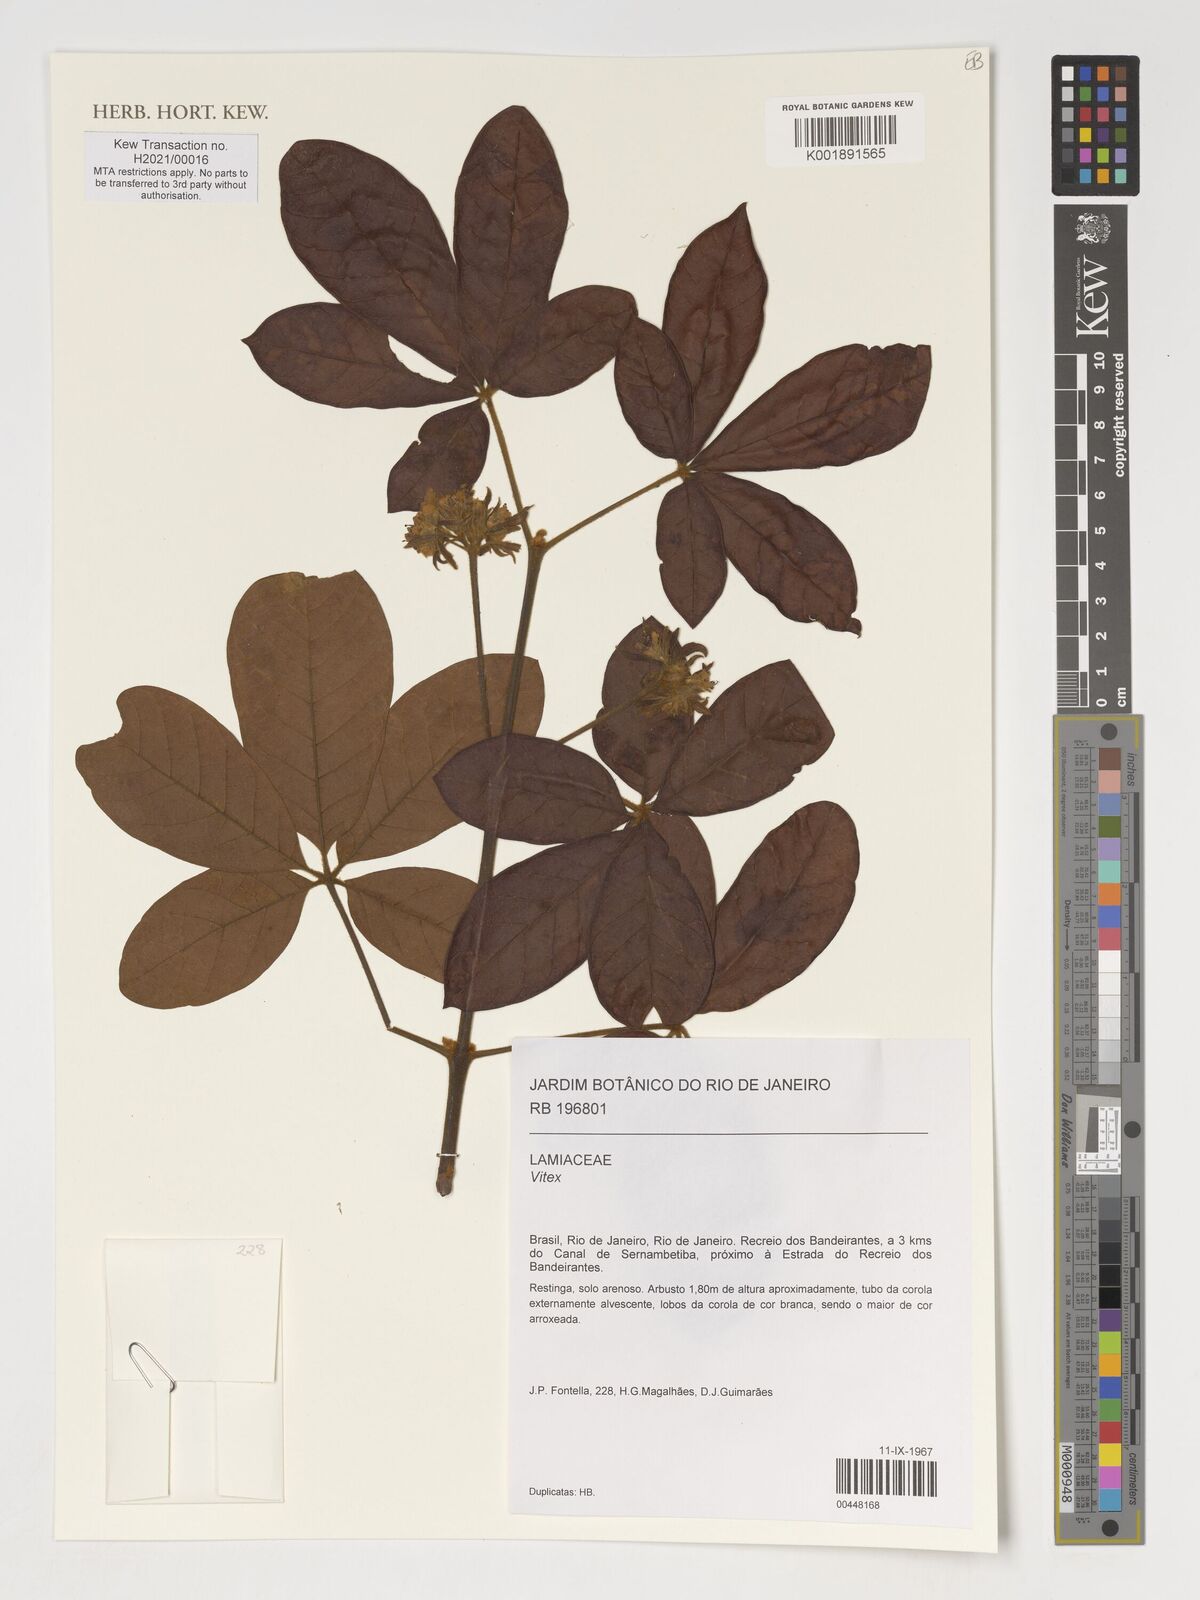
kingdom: Plantae
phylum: Tracheophyta
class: Magnoliopsida
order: Lamiales
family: Lamiaceae
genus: Vitex
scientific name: Vitex
